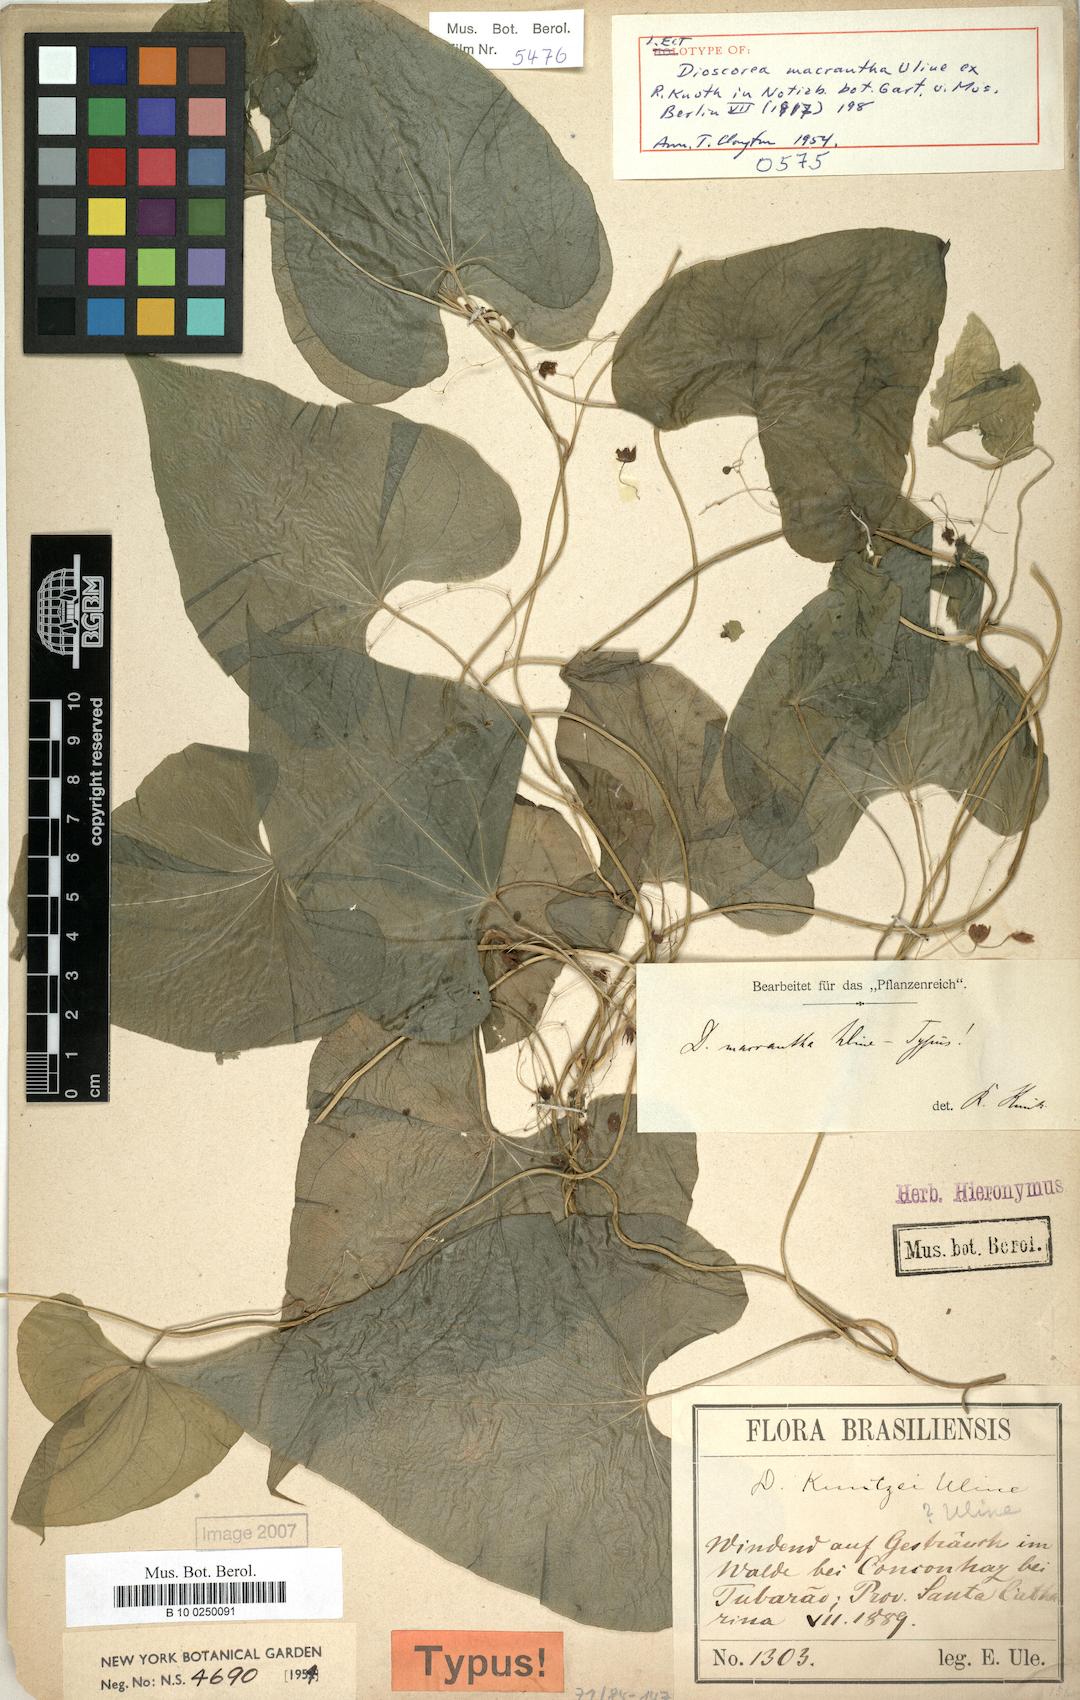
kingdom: Plantae
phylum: Tracheophyta
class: Liliopsida
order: Dioscoreales
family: Dioscoreaceae
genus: Dioscorea
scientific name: Dioscorea martiana
